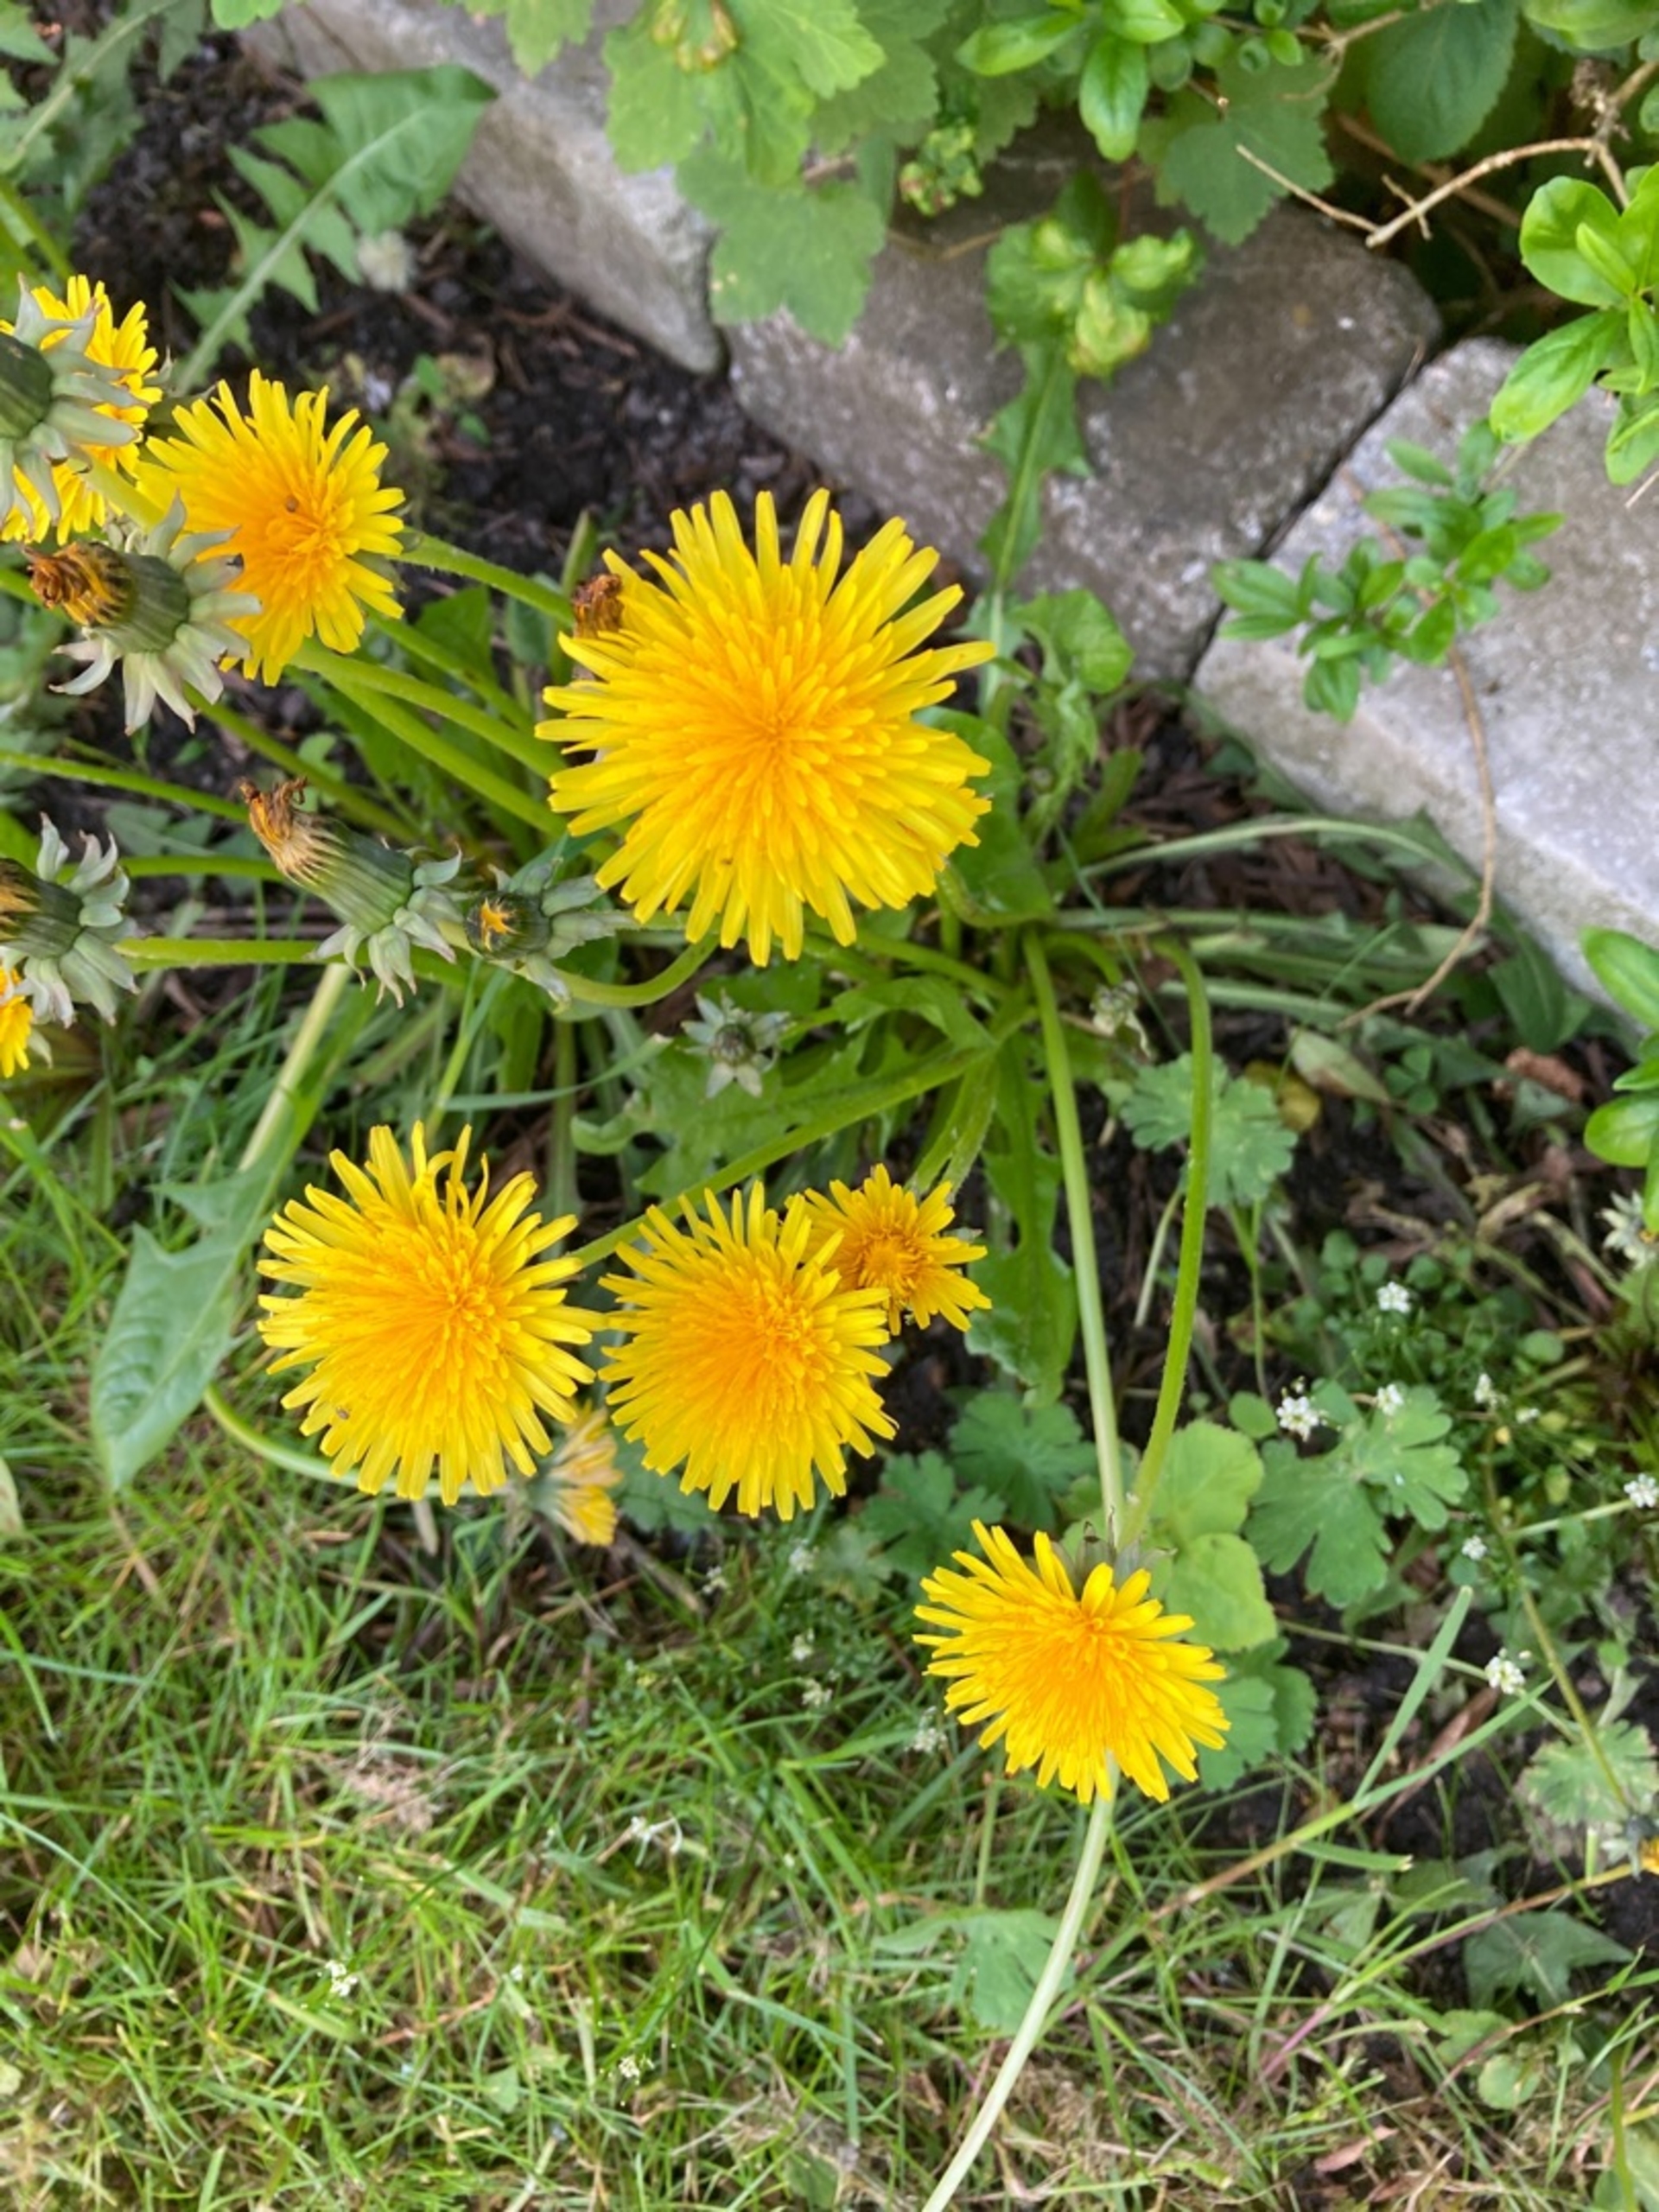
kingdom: Plantae
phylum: Tracheophyta
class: Magnoliopsida
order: Asterales
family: Asteraceae
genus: Taraxacum
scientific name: Taraxacum
